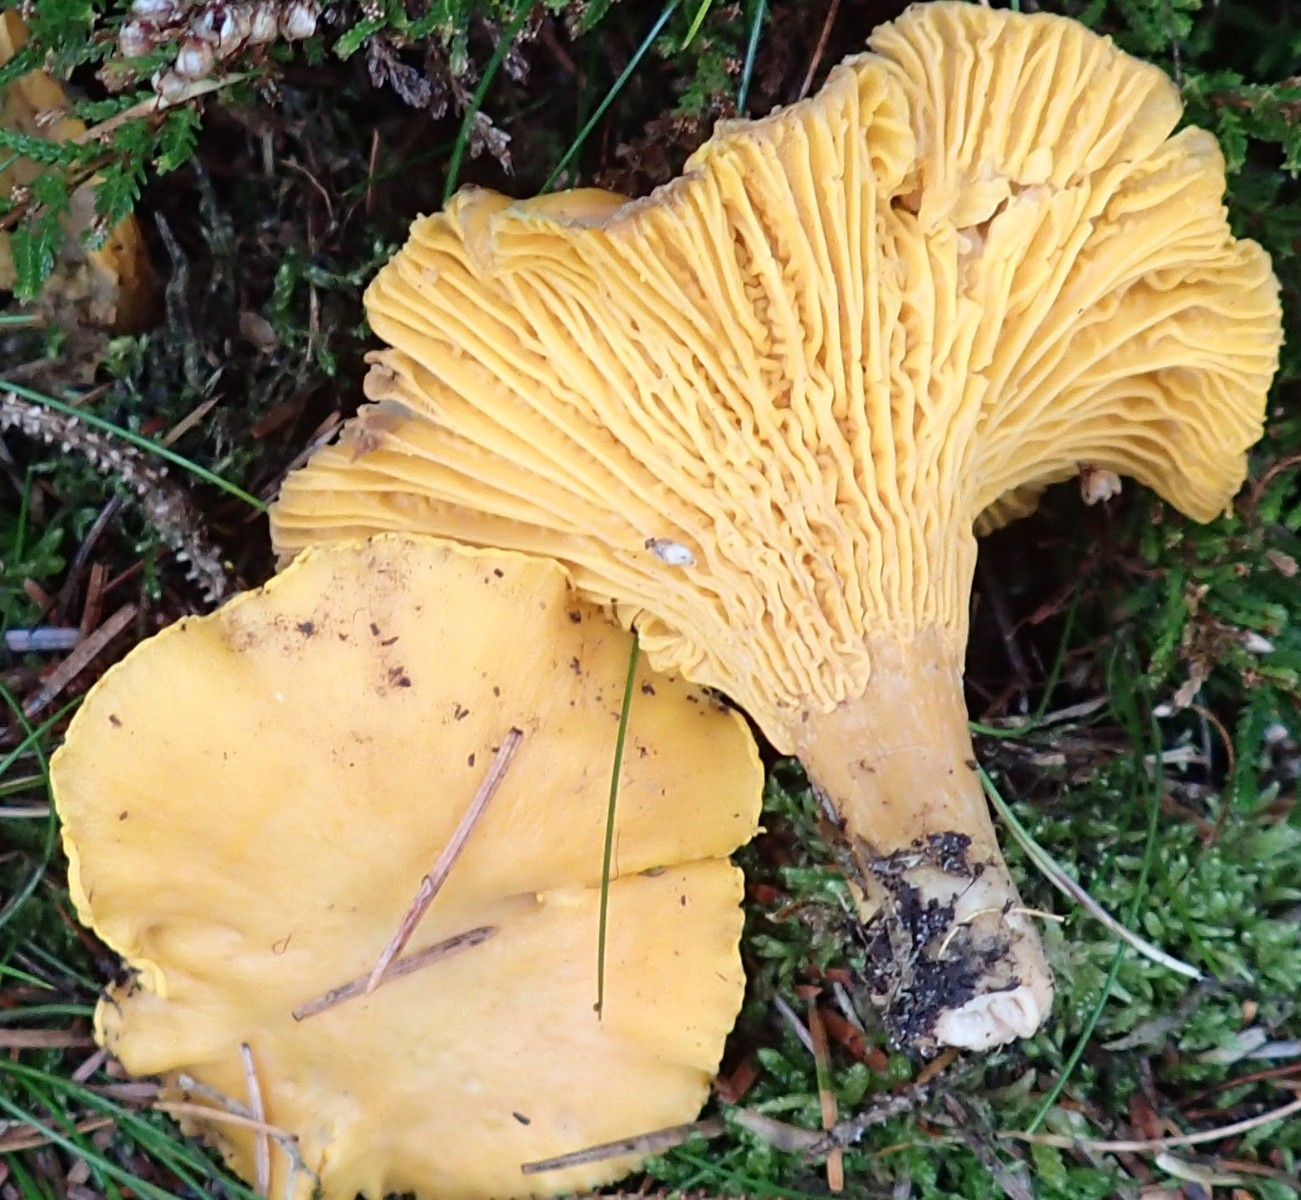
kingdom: Fungi
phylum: Basidiomycota
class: Agaricomycetes
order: Cantharellales
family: Hydnaceae
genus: Cantharellus
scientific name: Cantharellus cibarius
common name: almindelig kantarel
